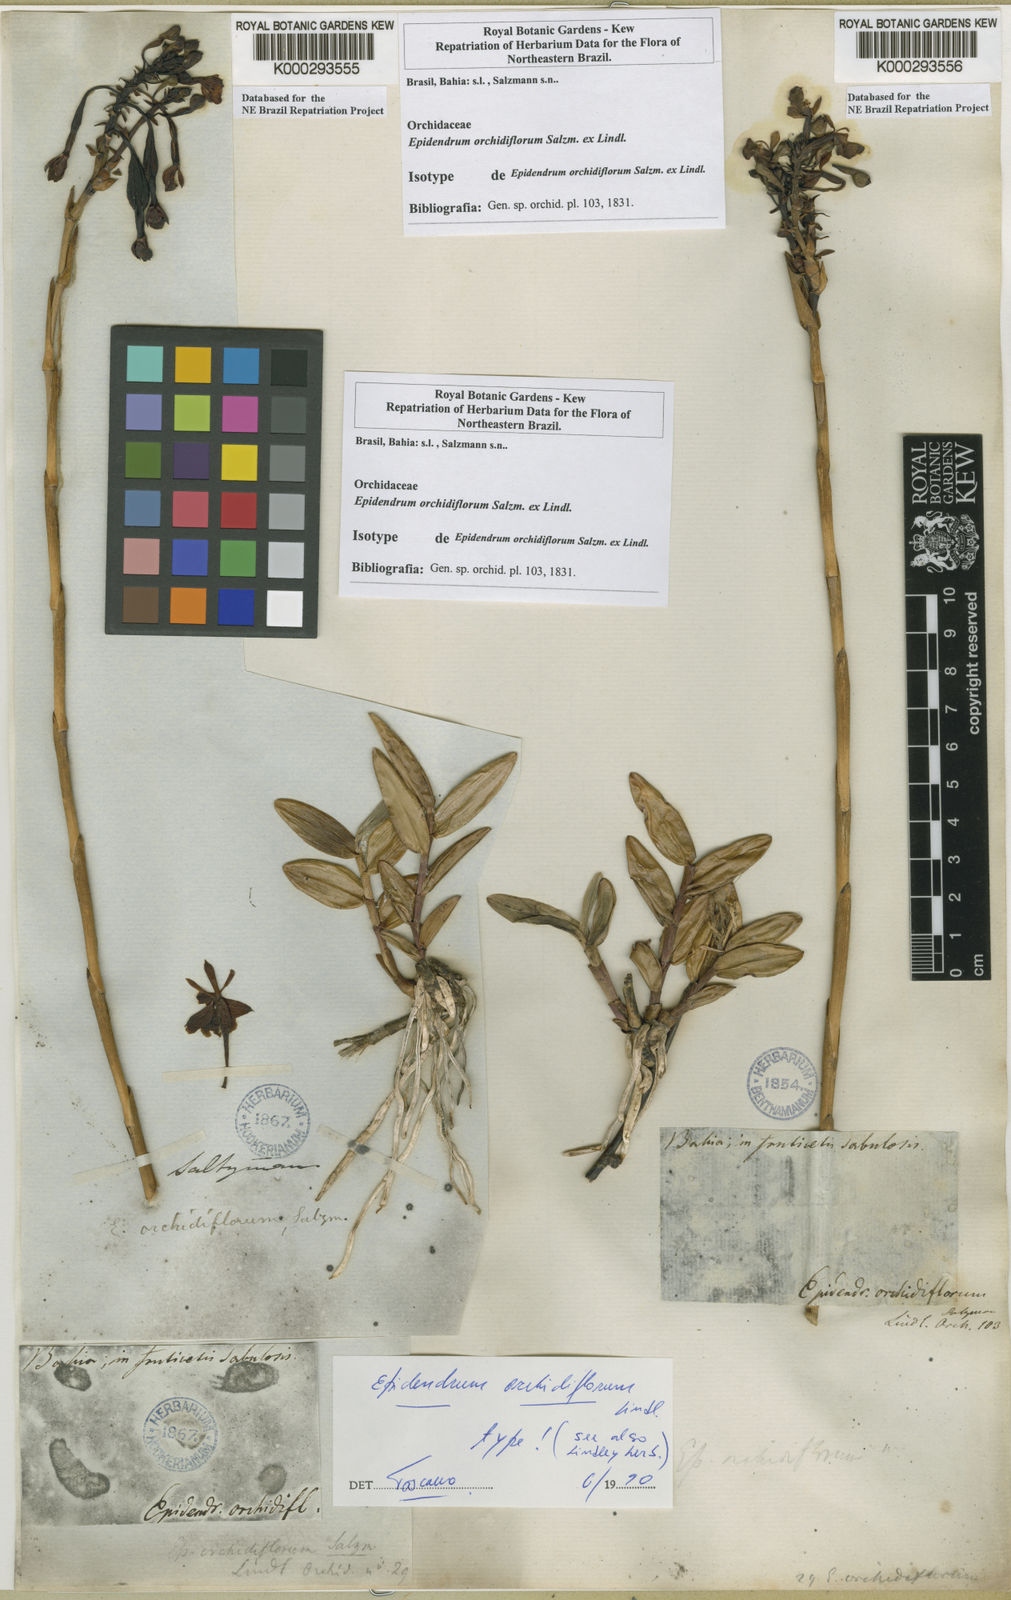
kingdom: Plantae
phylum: Tracheophyta
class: Liliopsida
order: Asparagales
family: Orchidaceae
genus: Epidendrum
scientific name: Epidendrum orchidiflorum
